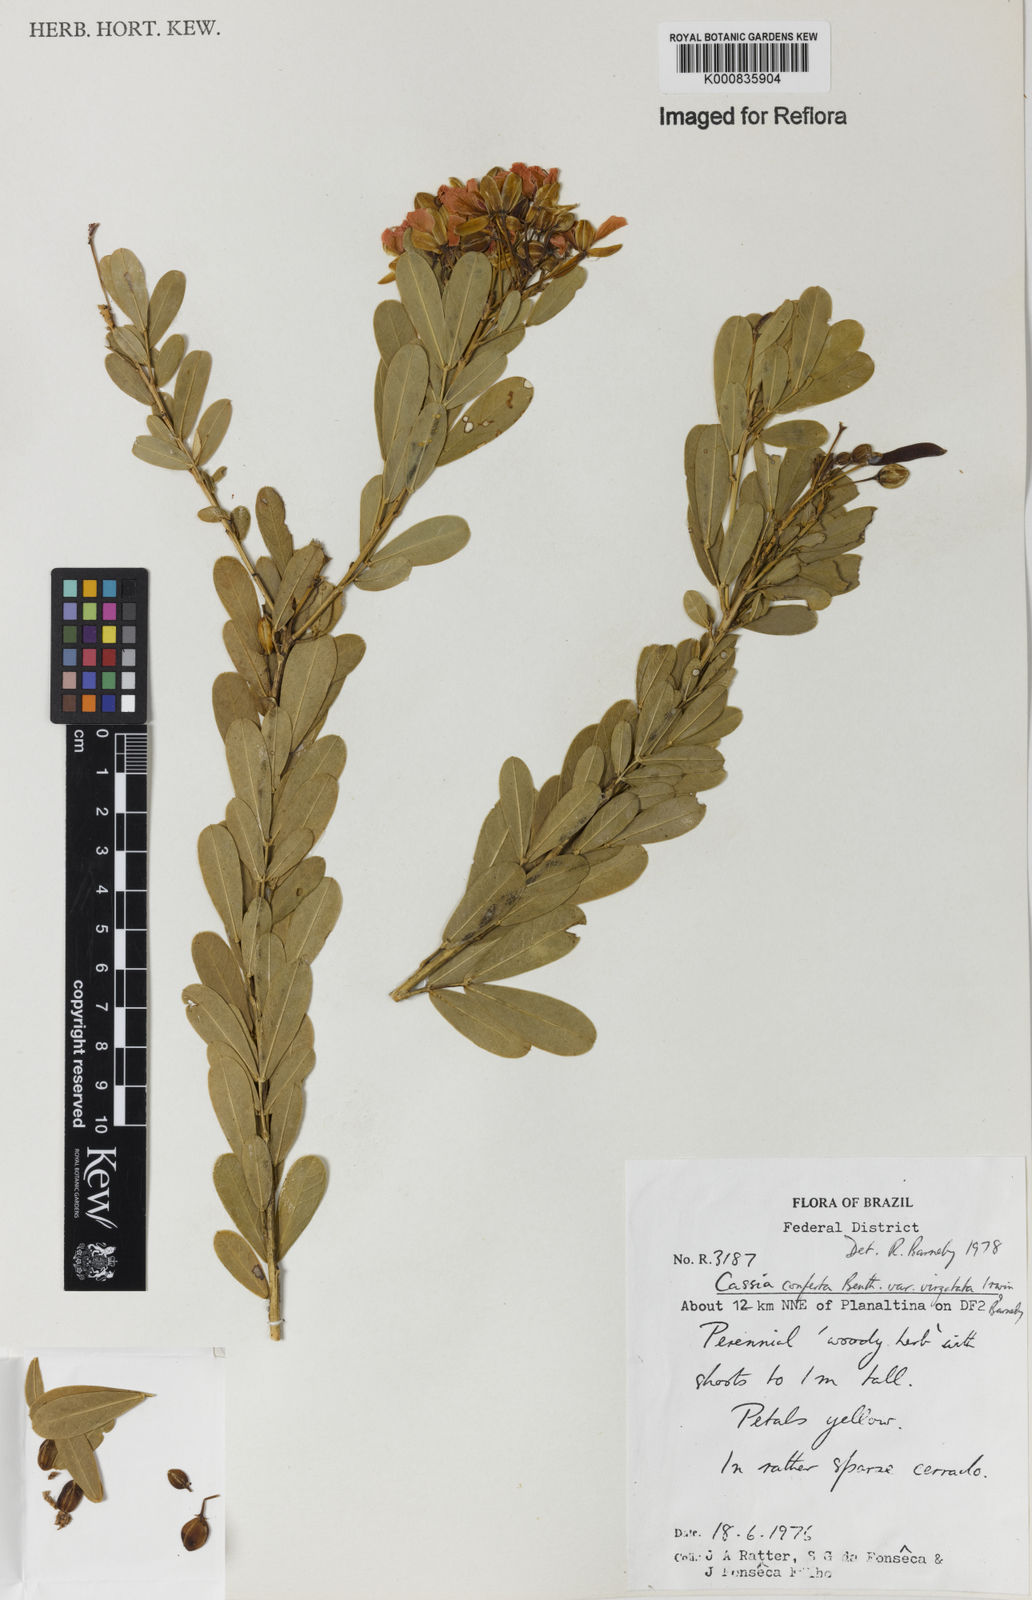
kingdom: Plantae
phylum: Tracheophyta
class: Magnoliopsida
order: Fabales
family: Fabaceae
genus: Chamaecrista
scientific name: Chamaecrista conferta
